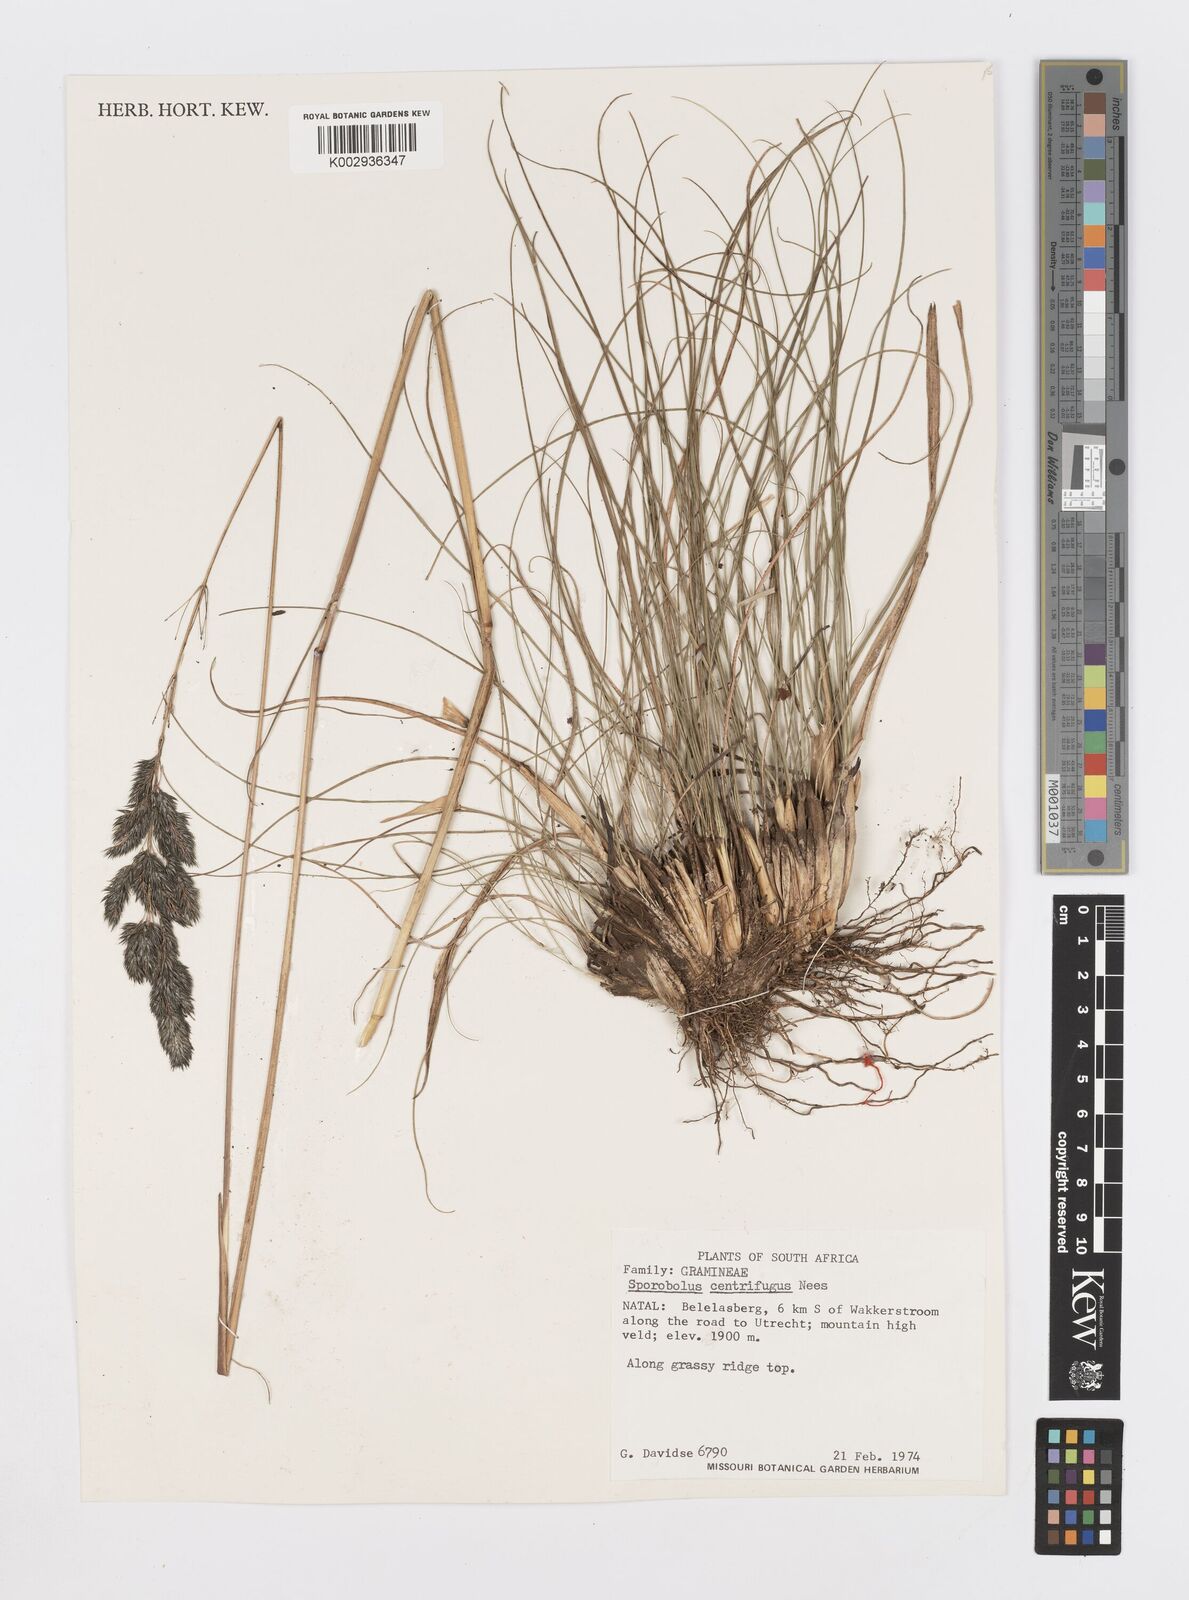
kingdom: Plantae
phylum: Tracheophyta
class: Liliopsida
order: Poales
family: Poaceae
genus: Sporobolus
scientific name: Sporobolus centrifugus
